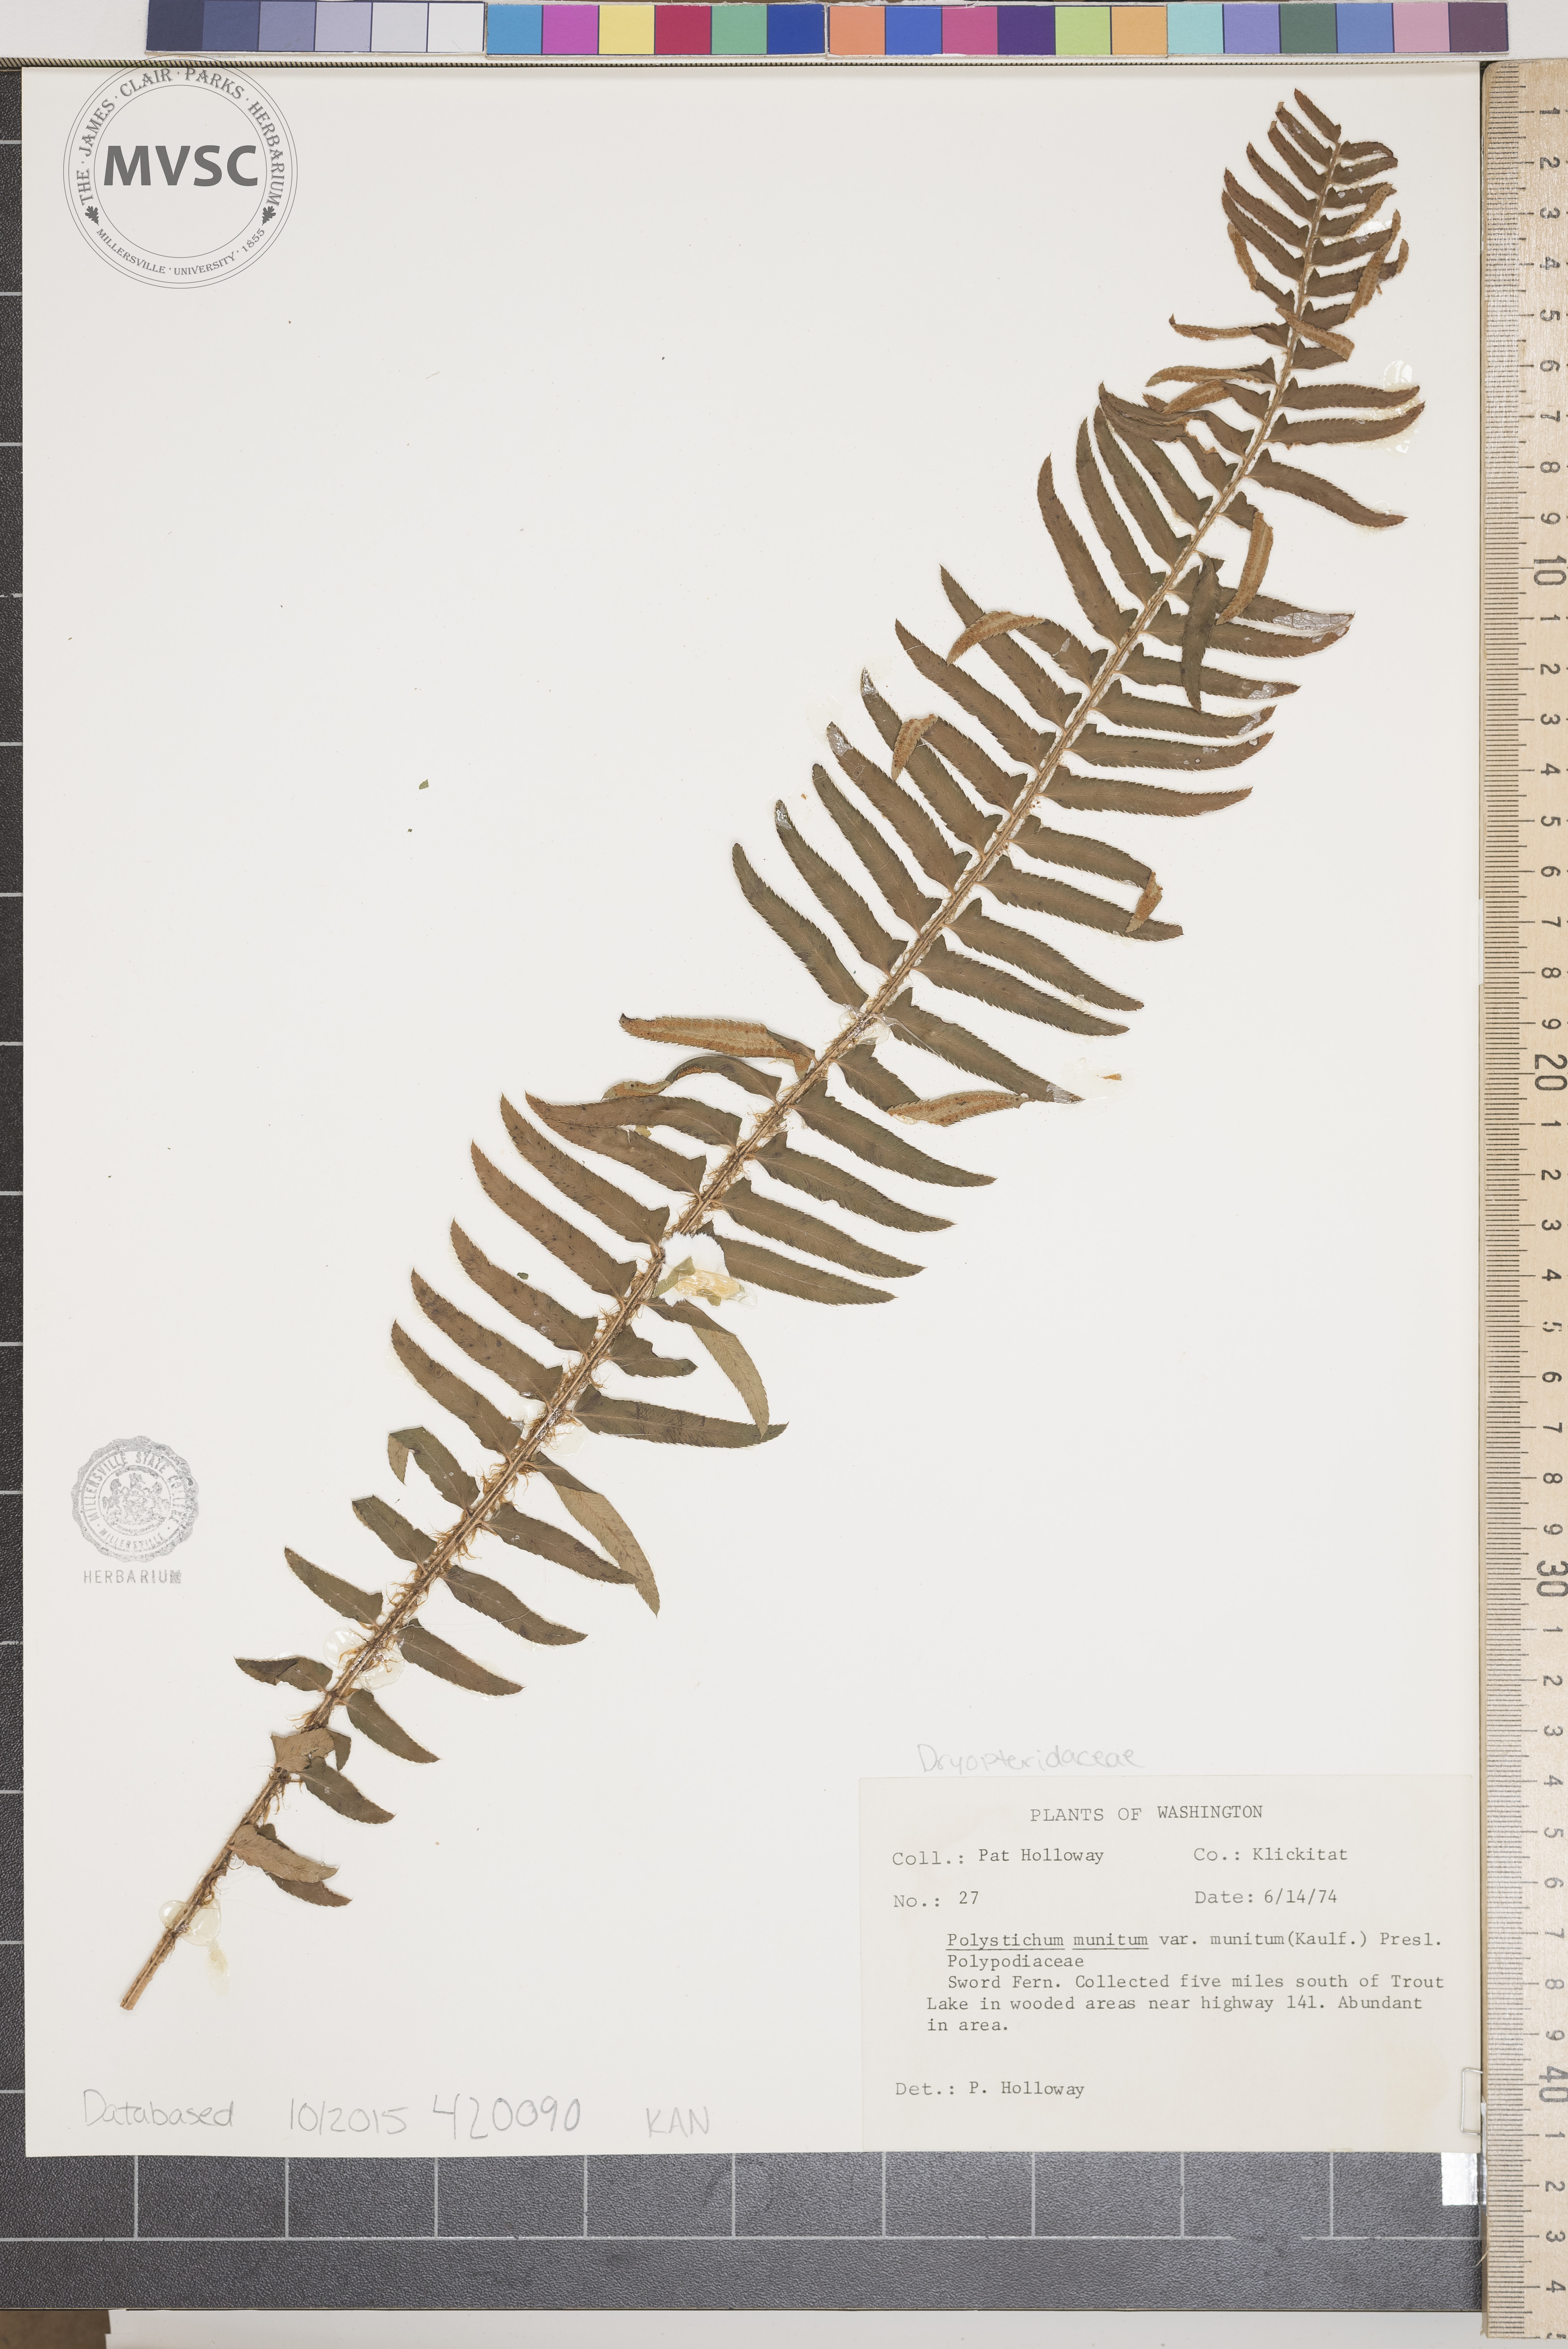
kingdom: Plantae
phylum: Tracheophyta
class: Polypodiopsida
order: Polypodiales
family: Dryopteridaceae
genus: Polystichum
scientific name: Polystichum munitum
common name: Sword Fern
